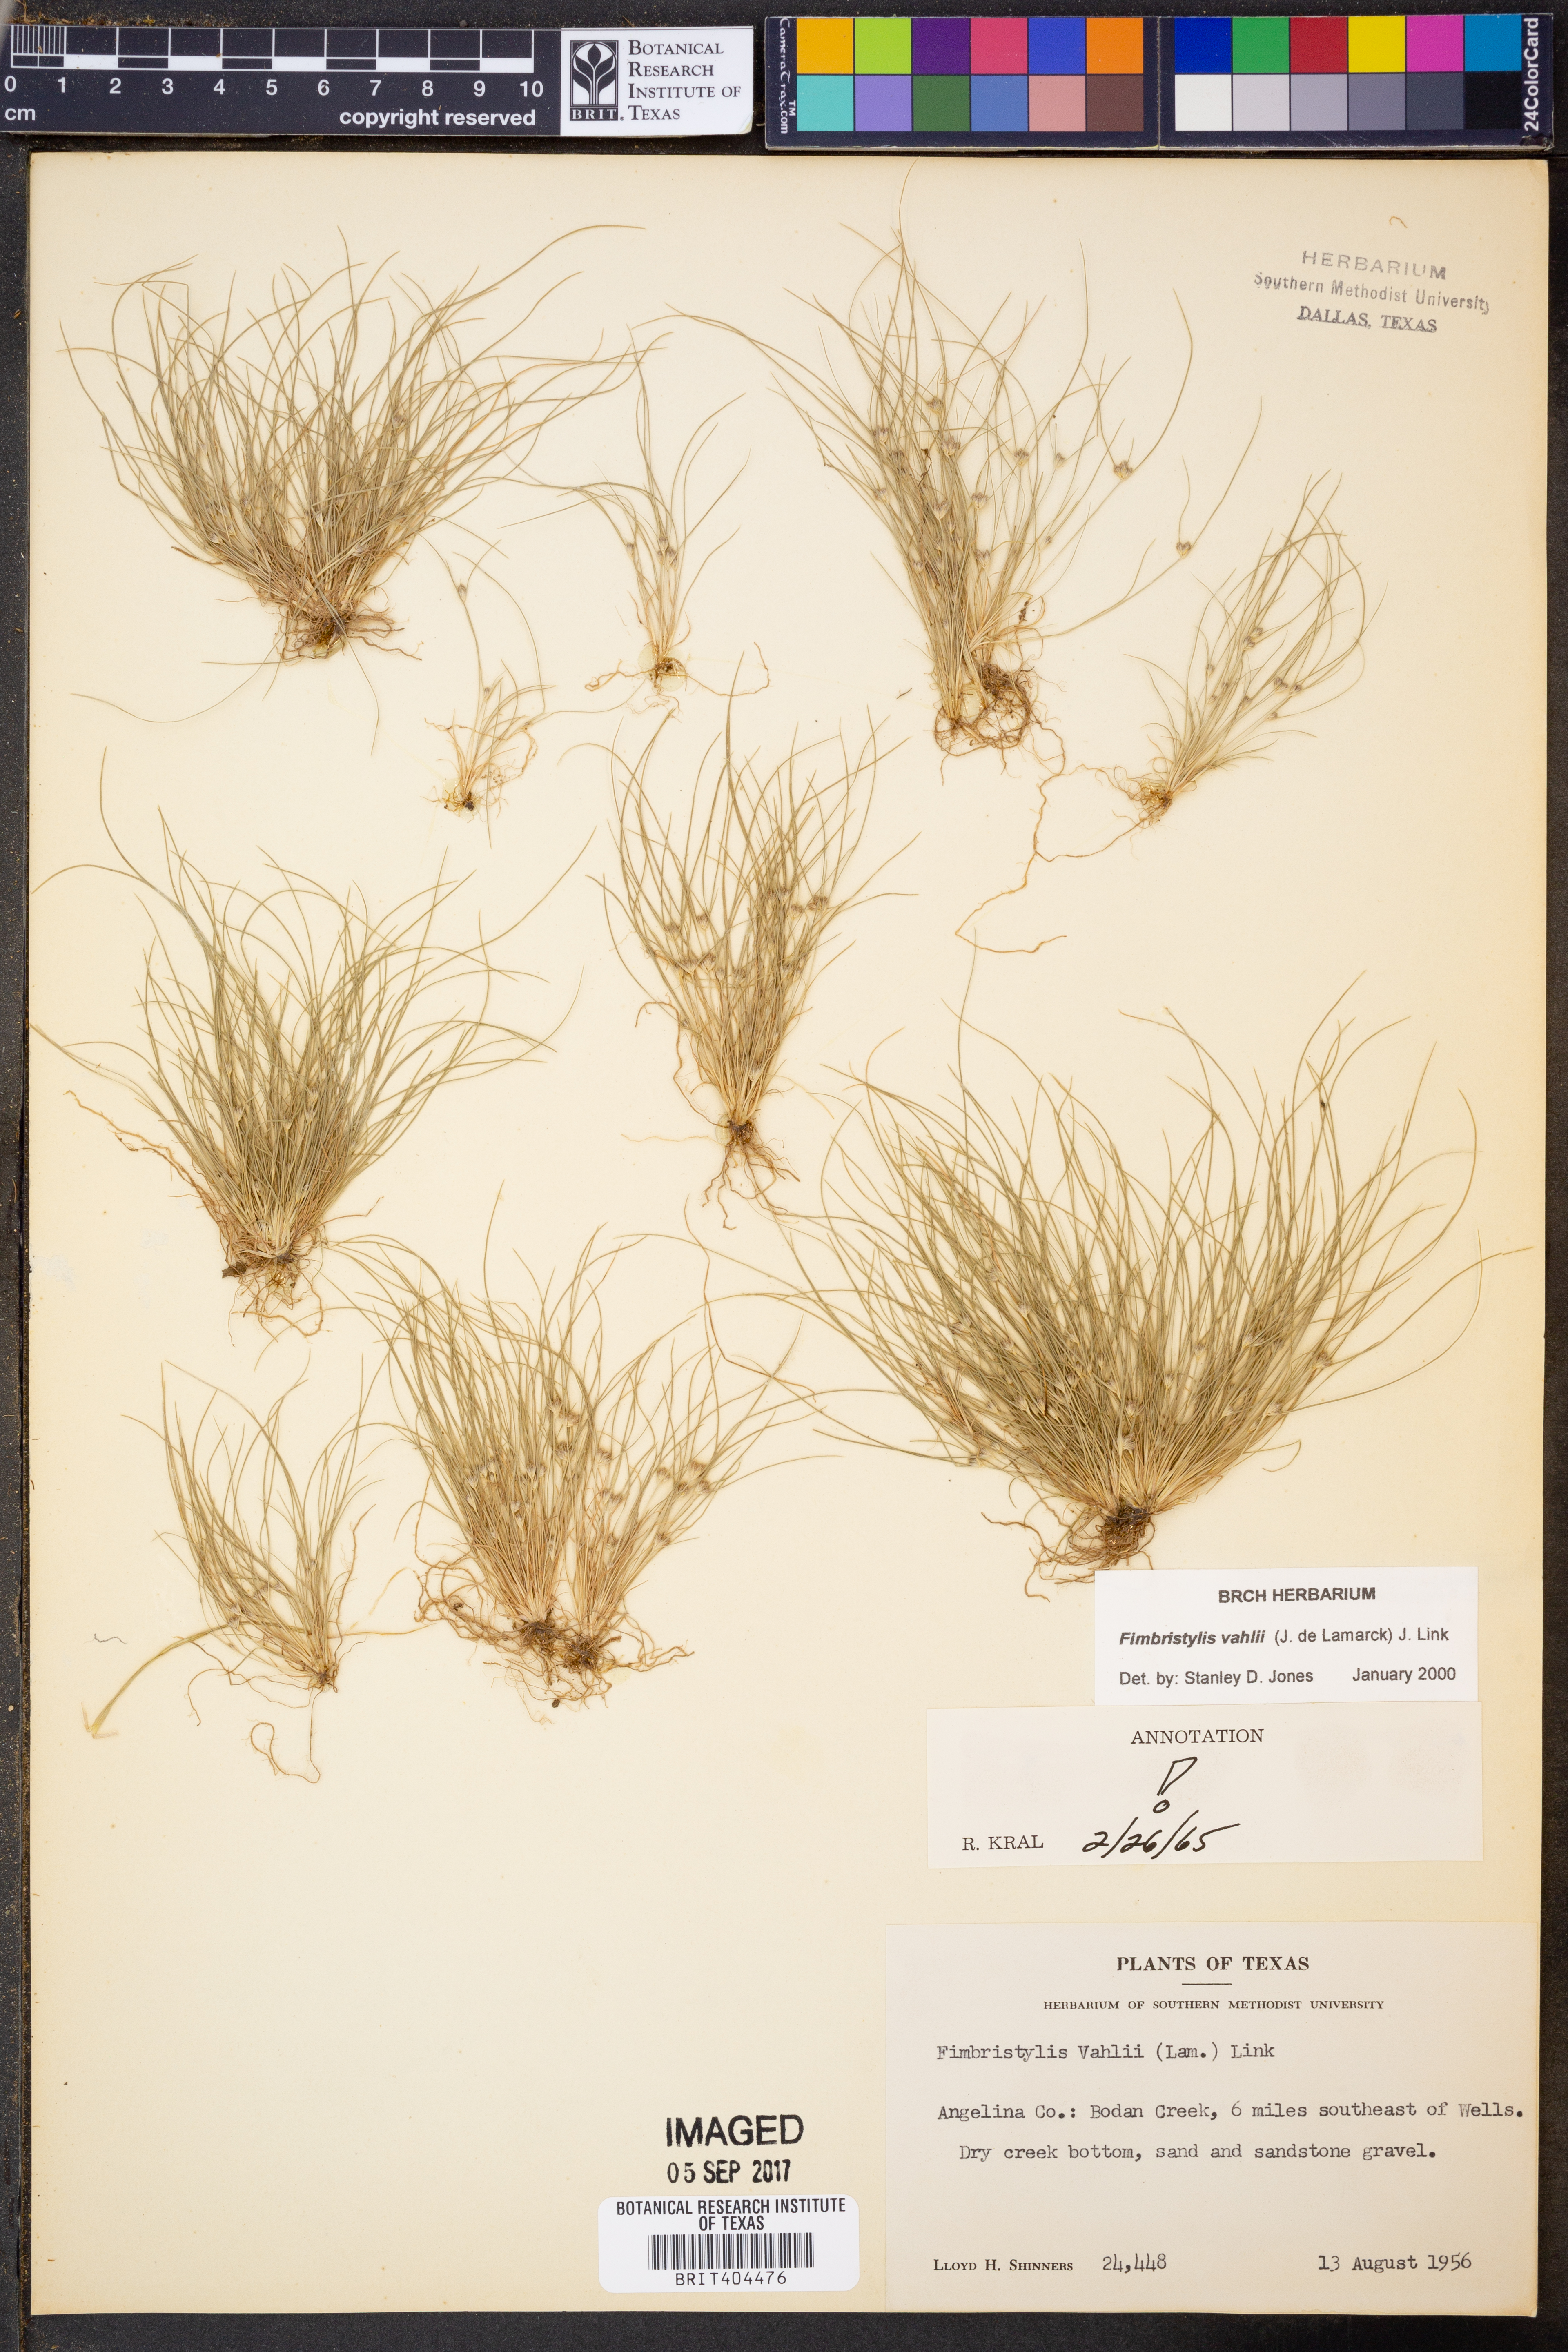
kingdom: Plantae
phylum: Tracheophyta
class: Liliopsida
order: Poales
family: Cyperaceae
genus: Fimbristylis
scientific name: Fimbristylis vahlii
